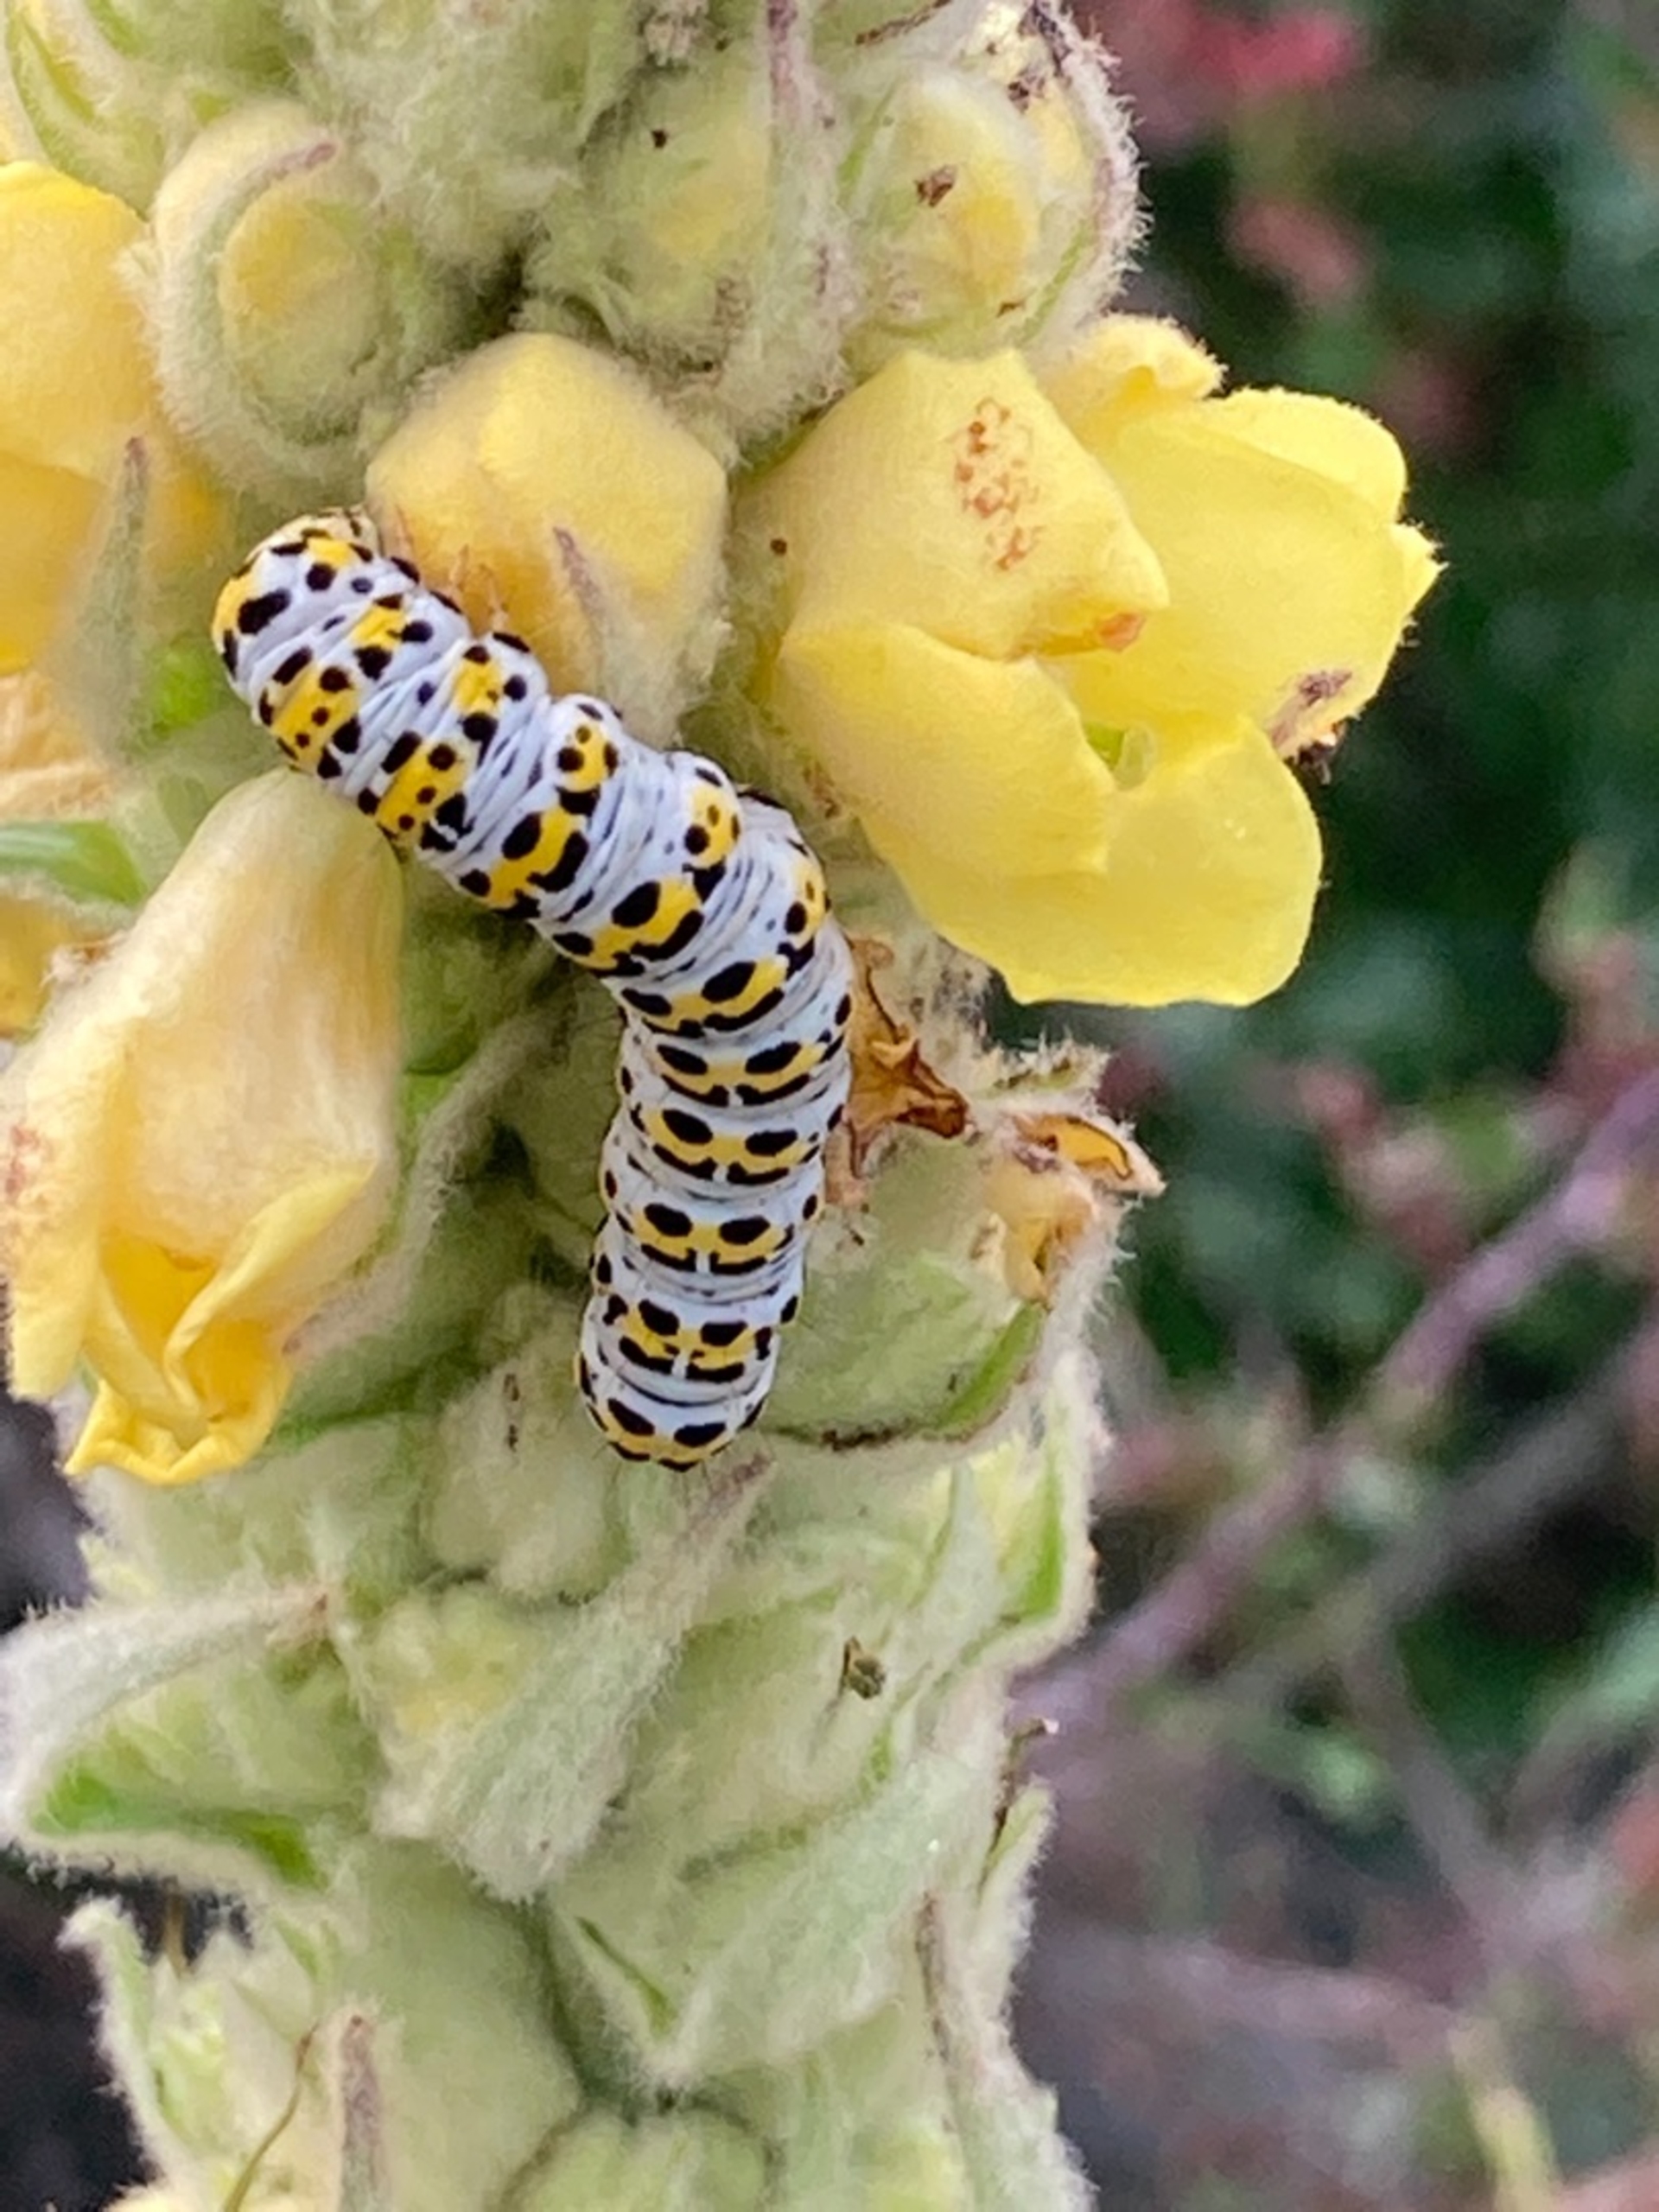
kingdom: Animalia
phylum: Arthropoda
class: Insecta
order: Lepidoptera
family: Noctuidae
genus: Cucullia
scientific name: Cucullia verbasci
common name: Filtbladet kongelys-hætteugle
